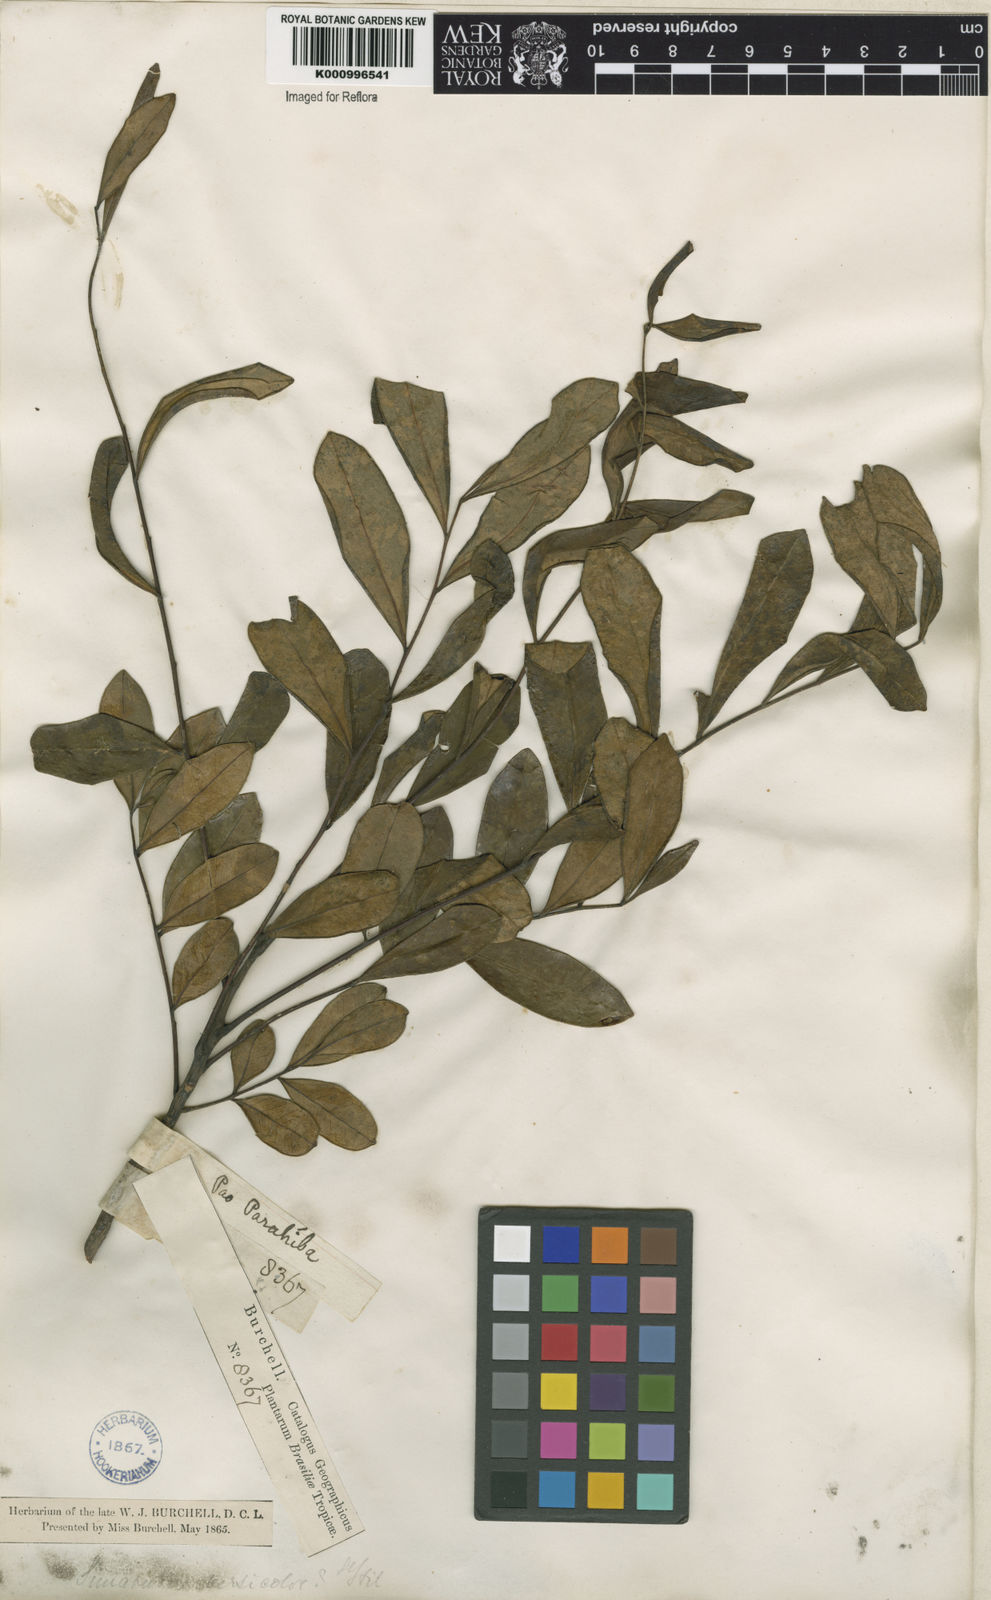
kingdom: Plantae
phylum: Tracheophyta
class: Magnoliopsida
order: Sapindales
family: Simaroubaceae
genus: Simarouba
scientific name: Simarouba versicolor
